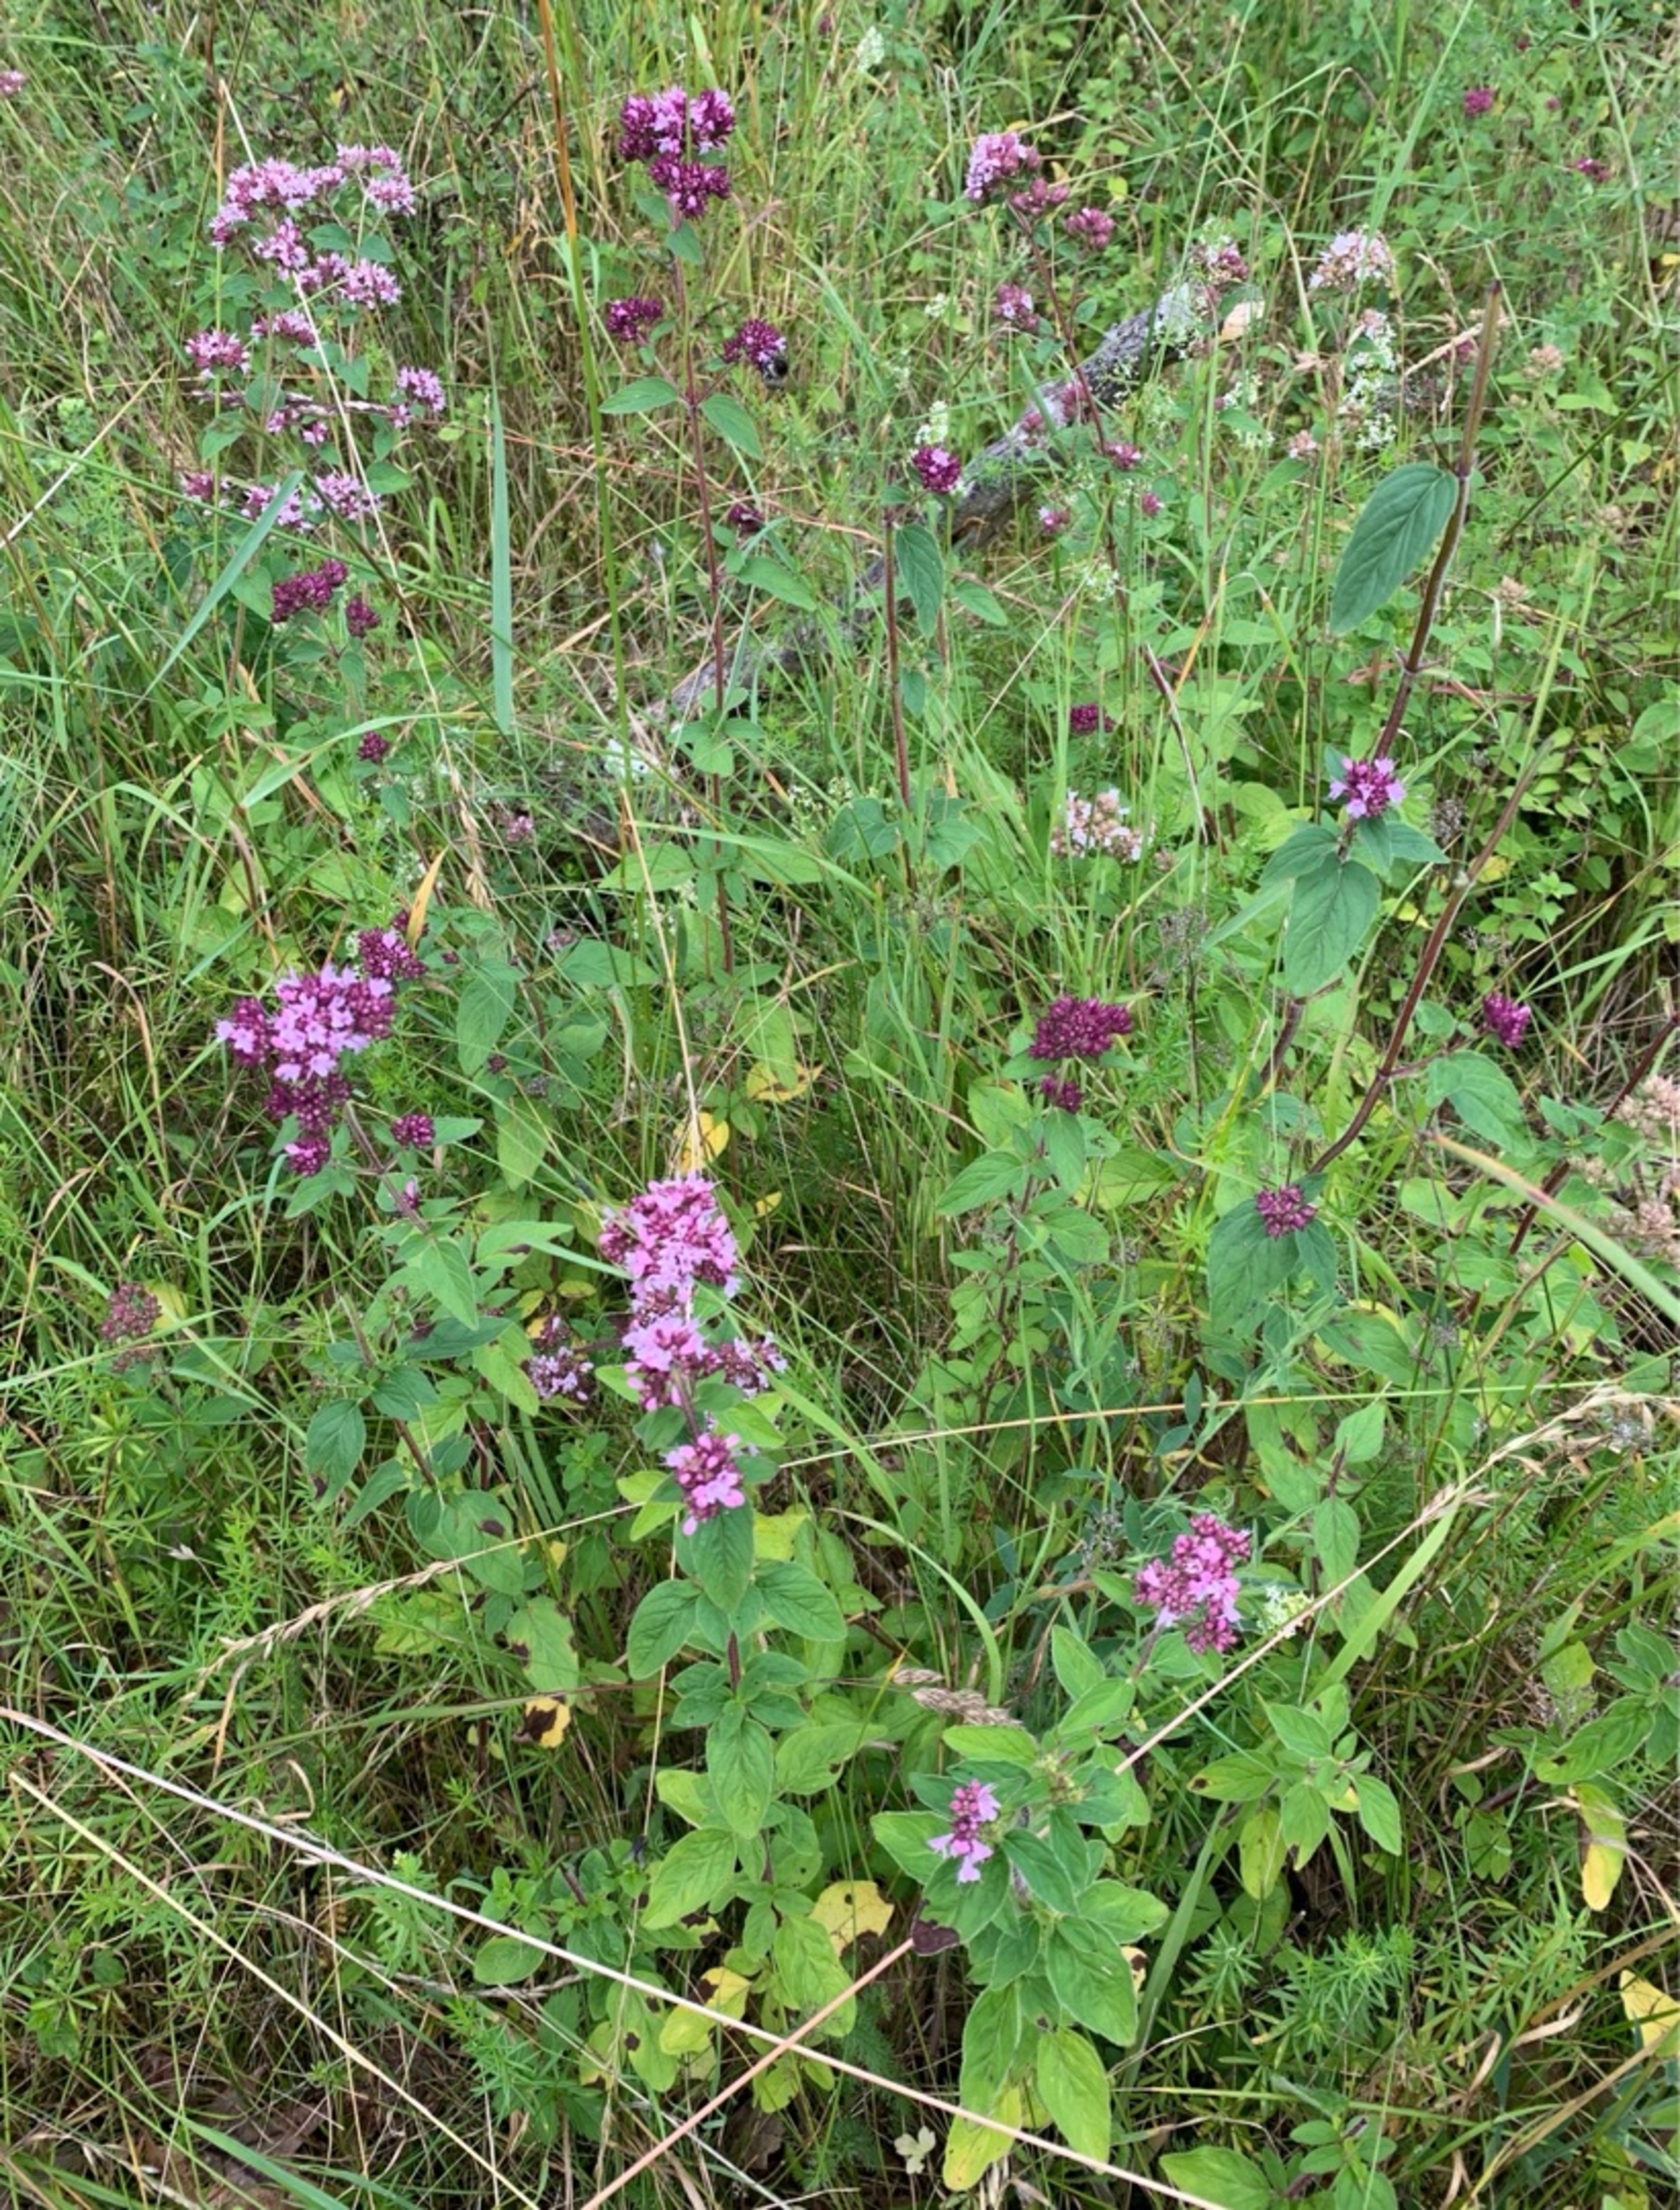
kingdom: Plantae
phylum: Tracheophyta
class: Magnoliopsida
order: Lamiales
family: Lamiaceae
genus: Origanum
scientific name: Origanum vulgare
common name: Merian
